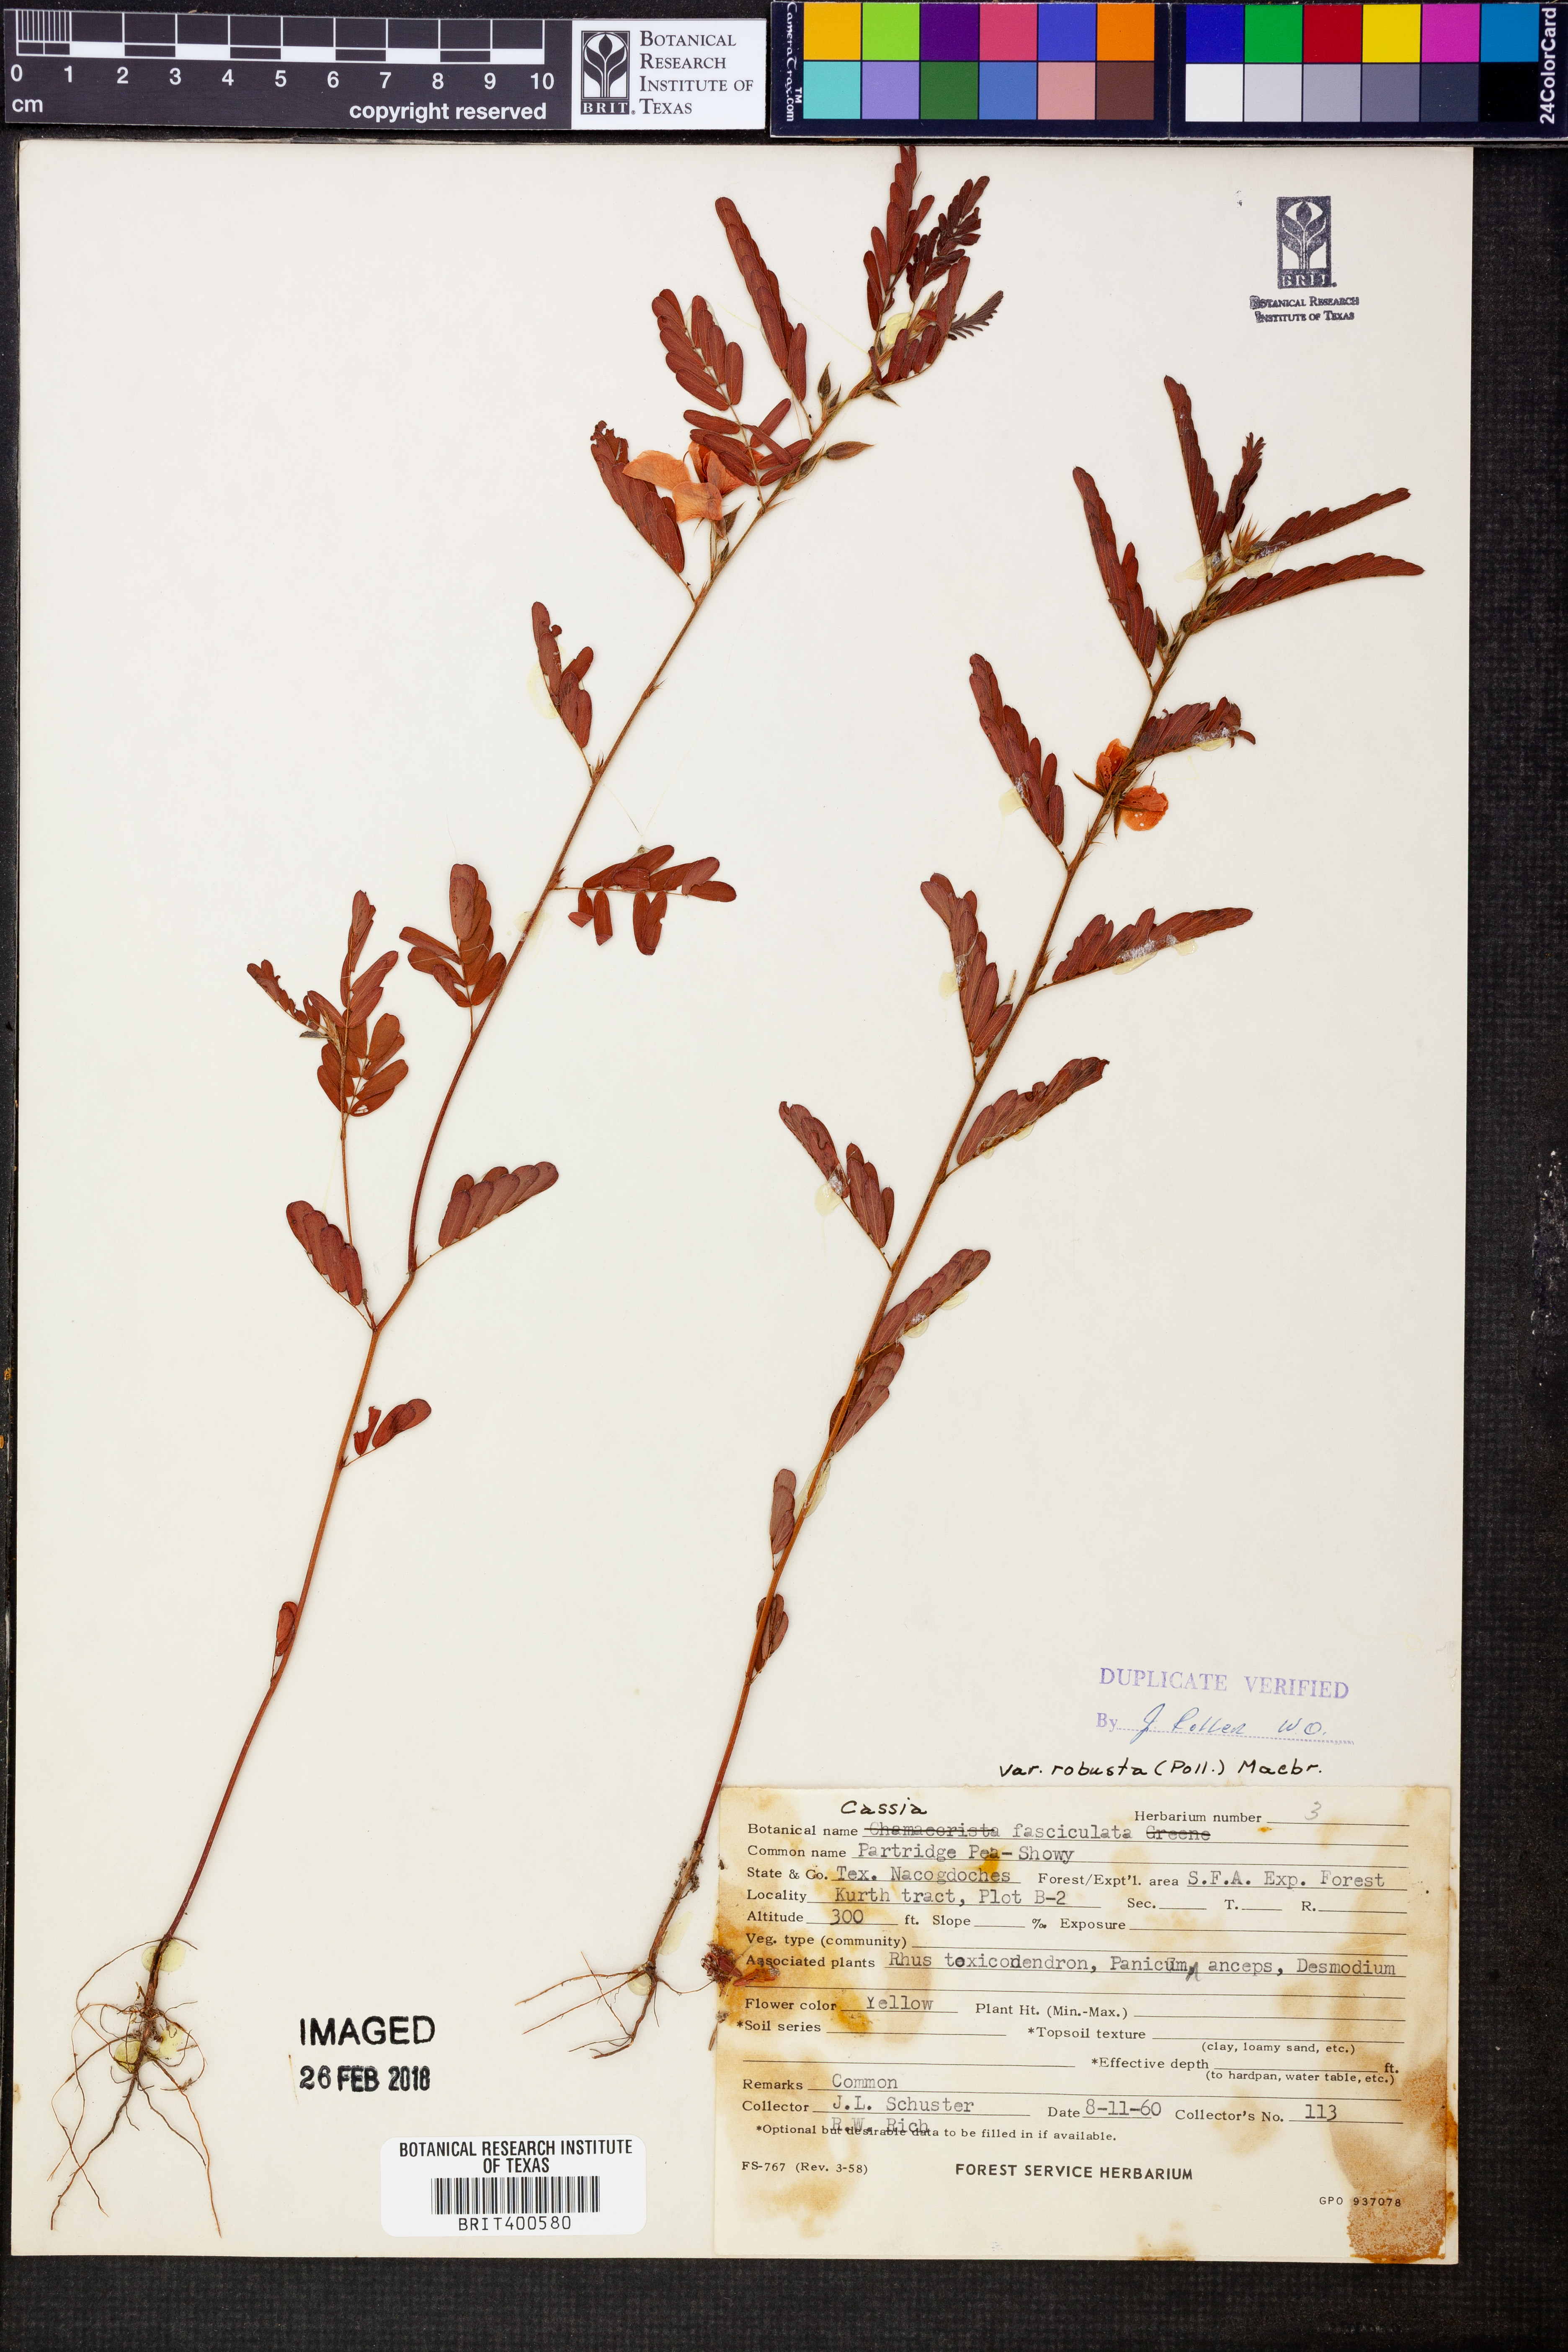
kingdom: Plantae
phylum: Tracheophyta
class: Magnoliopsida
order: Fabales
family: Fabaceae
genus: Chamaecrista
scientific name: Chamaecrista fasciculata
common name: Golden cassia
